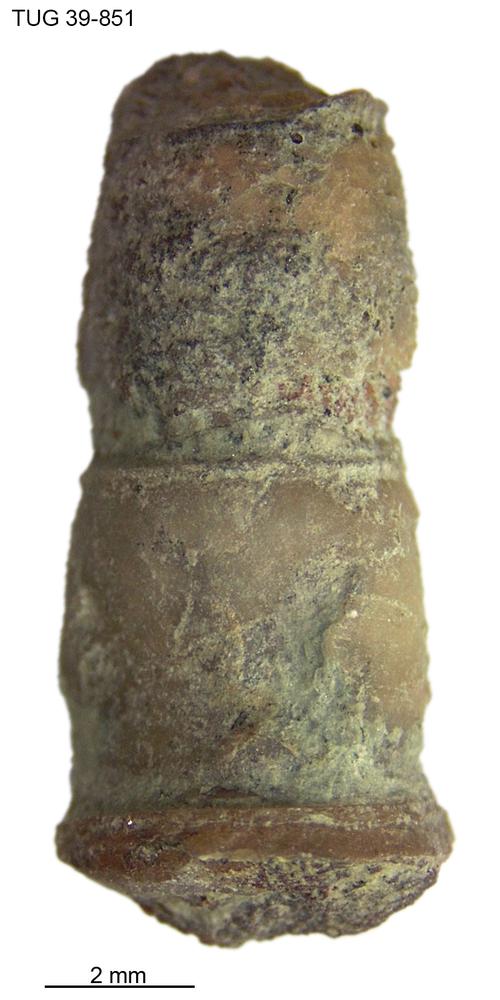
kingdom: Animalia
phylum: Echinodermata
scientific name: Echinodermata
